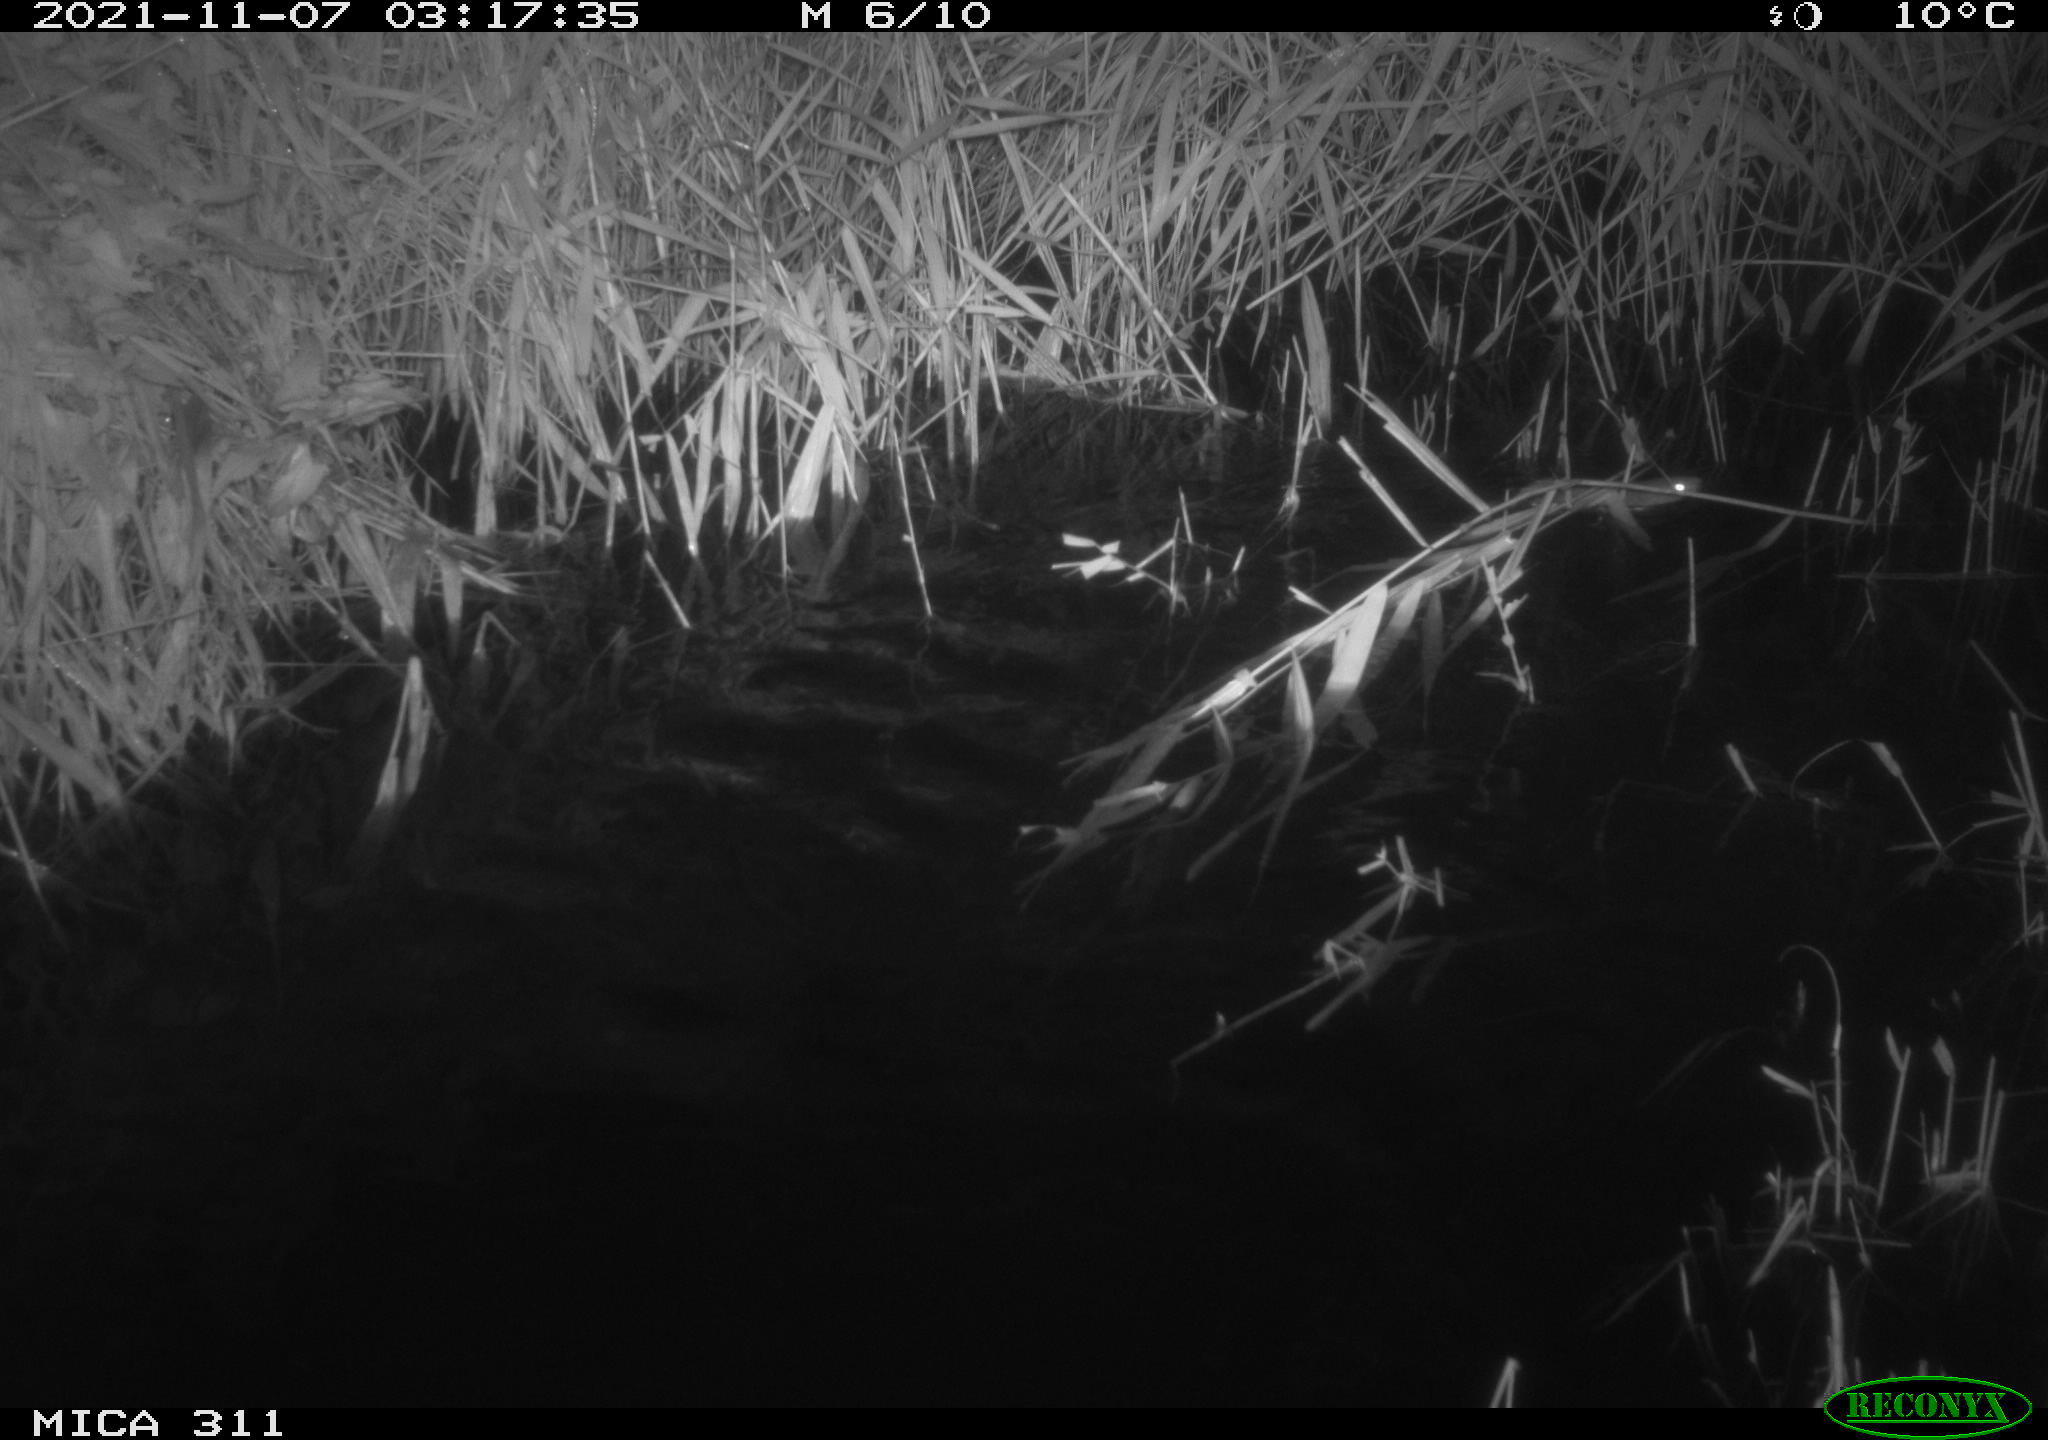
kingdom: Animalia
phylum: Chordata
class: Mammalia
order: Rodentia
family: Muridae
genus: Rattus
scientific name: Rattus norvegicus
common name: Brown rat
